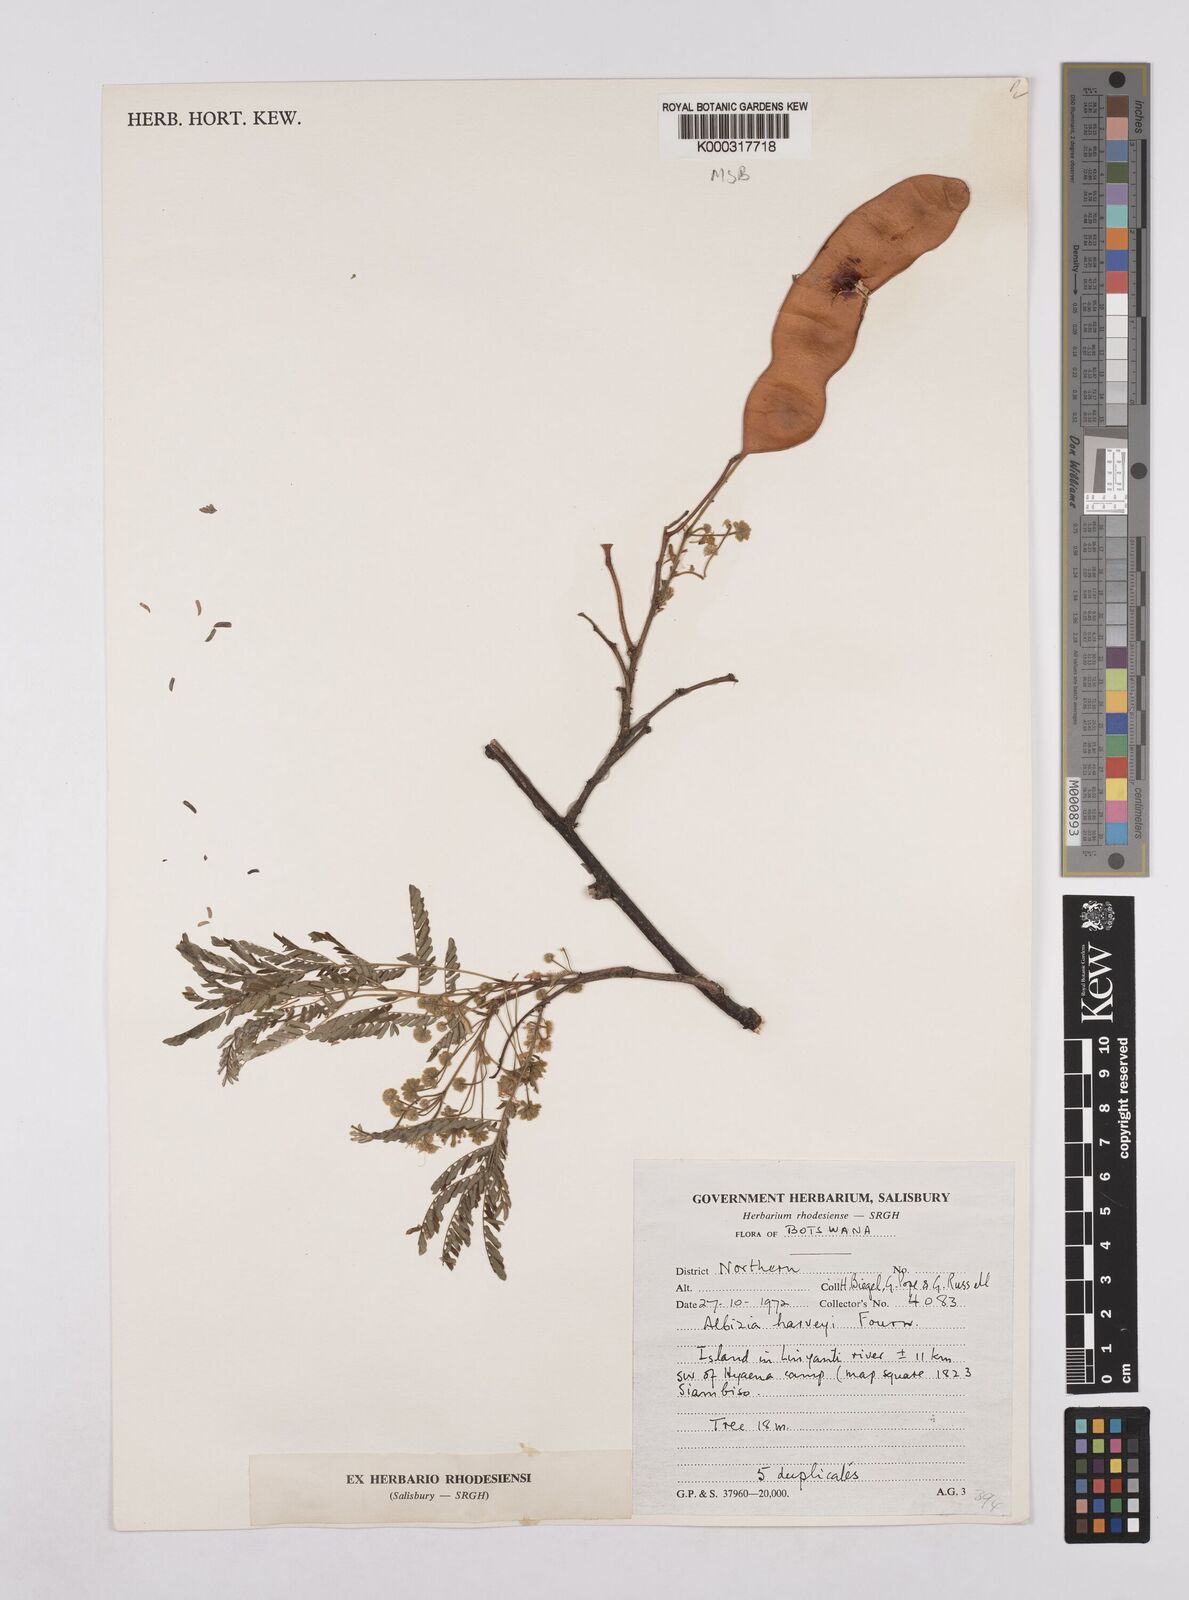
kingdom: Plantae
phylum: Tracheophyta
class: Magnoliopsida
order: Fabales
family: Fabaceae
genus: Albizia
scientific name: Albizia harveyi
